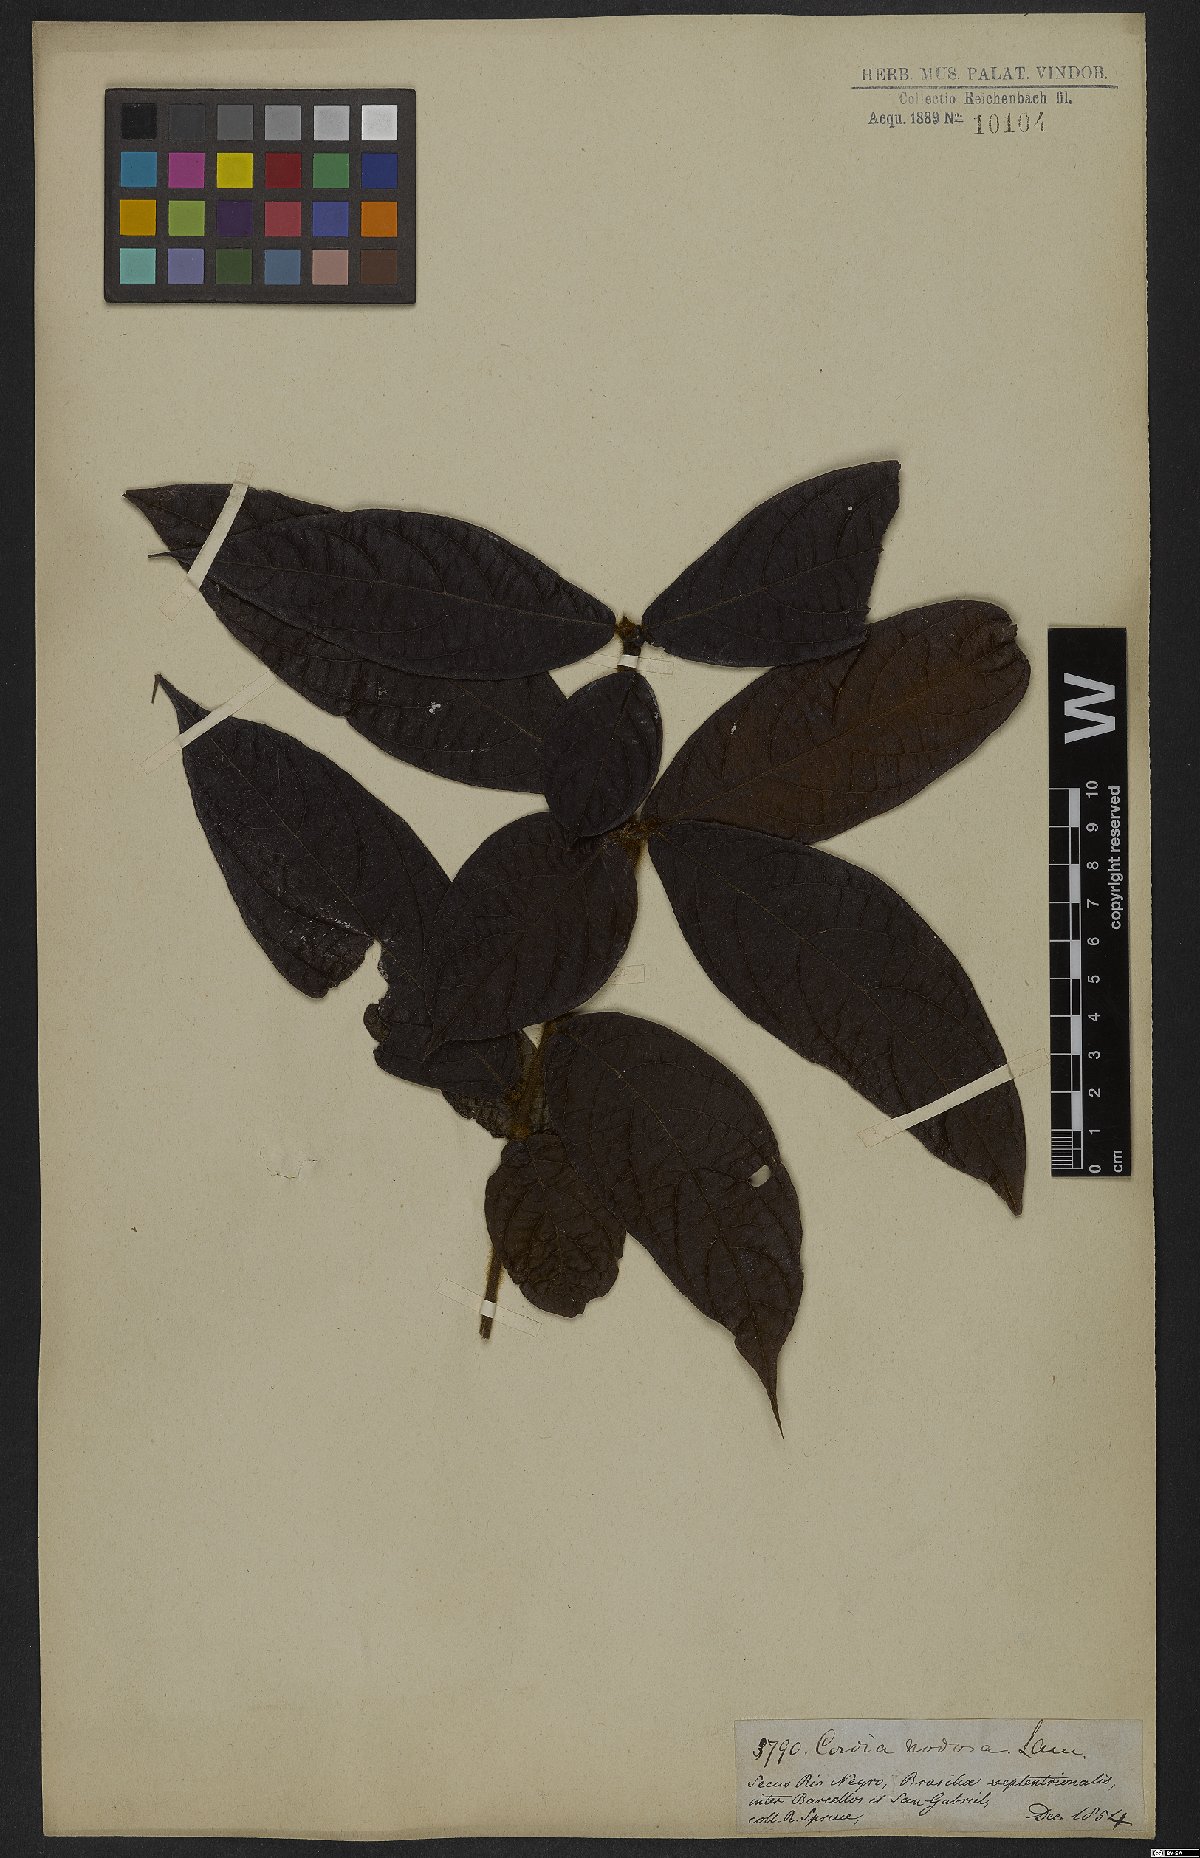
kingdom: Plantae
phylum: Tracheophyta
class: Magnoliopsida
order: Boraginales
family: Cordiaceae
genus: Cordia
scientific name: Cordia nodosa
